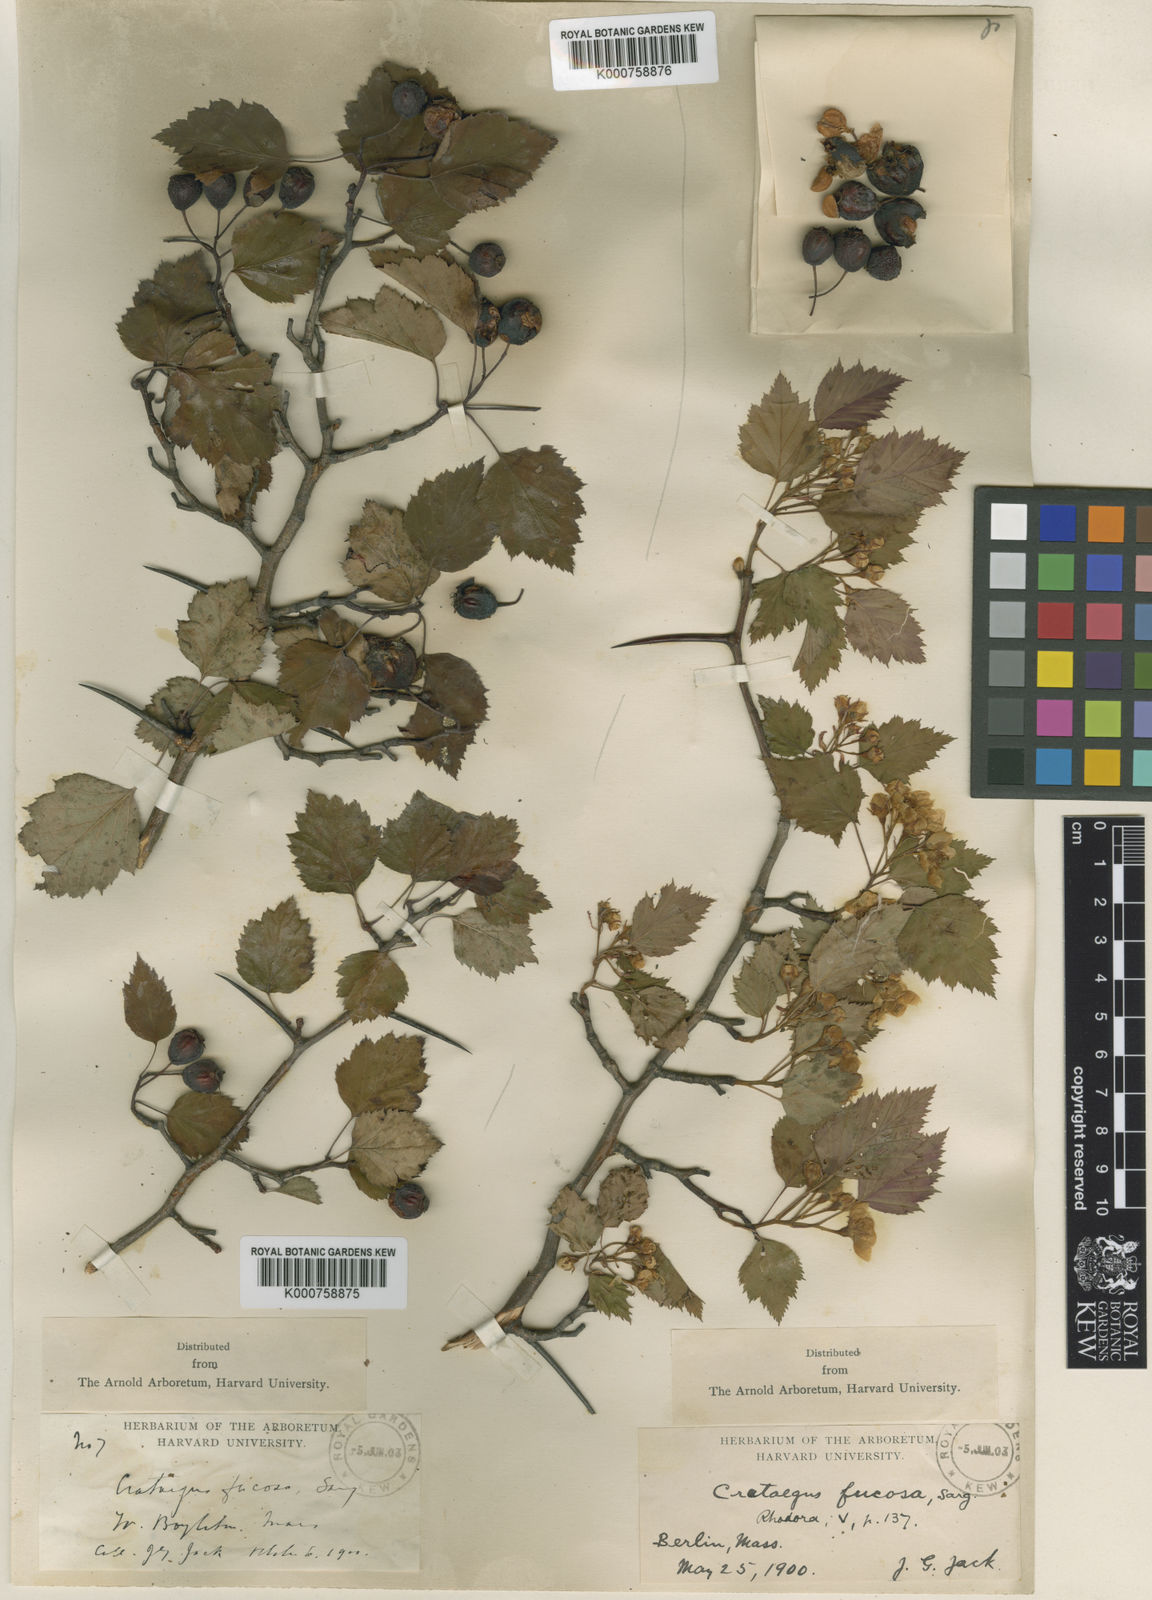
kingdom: Plantae
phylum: Tracheophyta
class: Magnoliopsida
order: Rosales
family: Rosaceae
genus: Crataegus
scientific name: Crataegus fucosa
